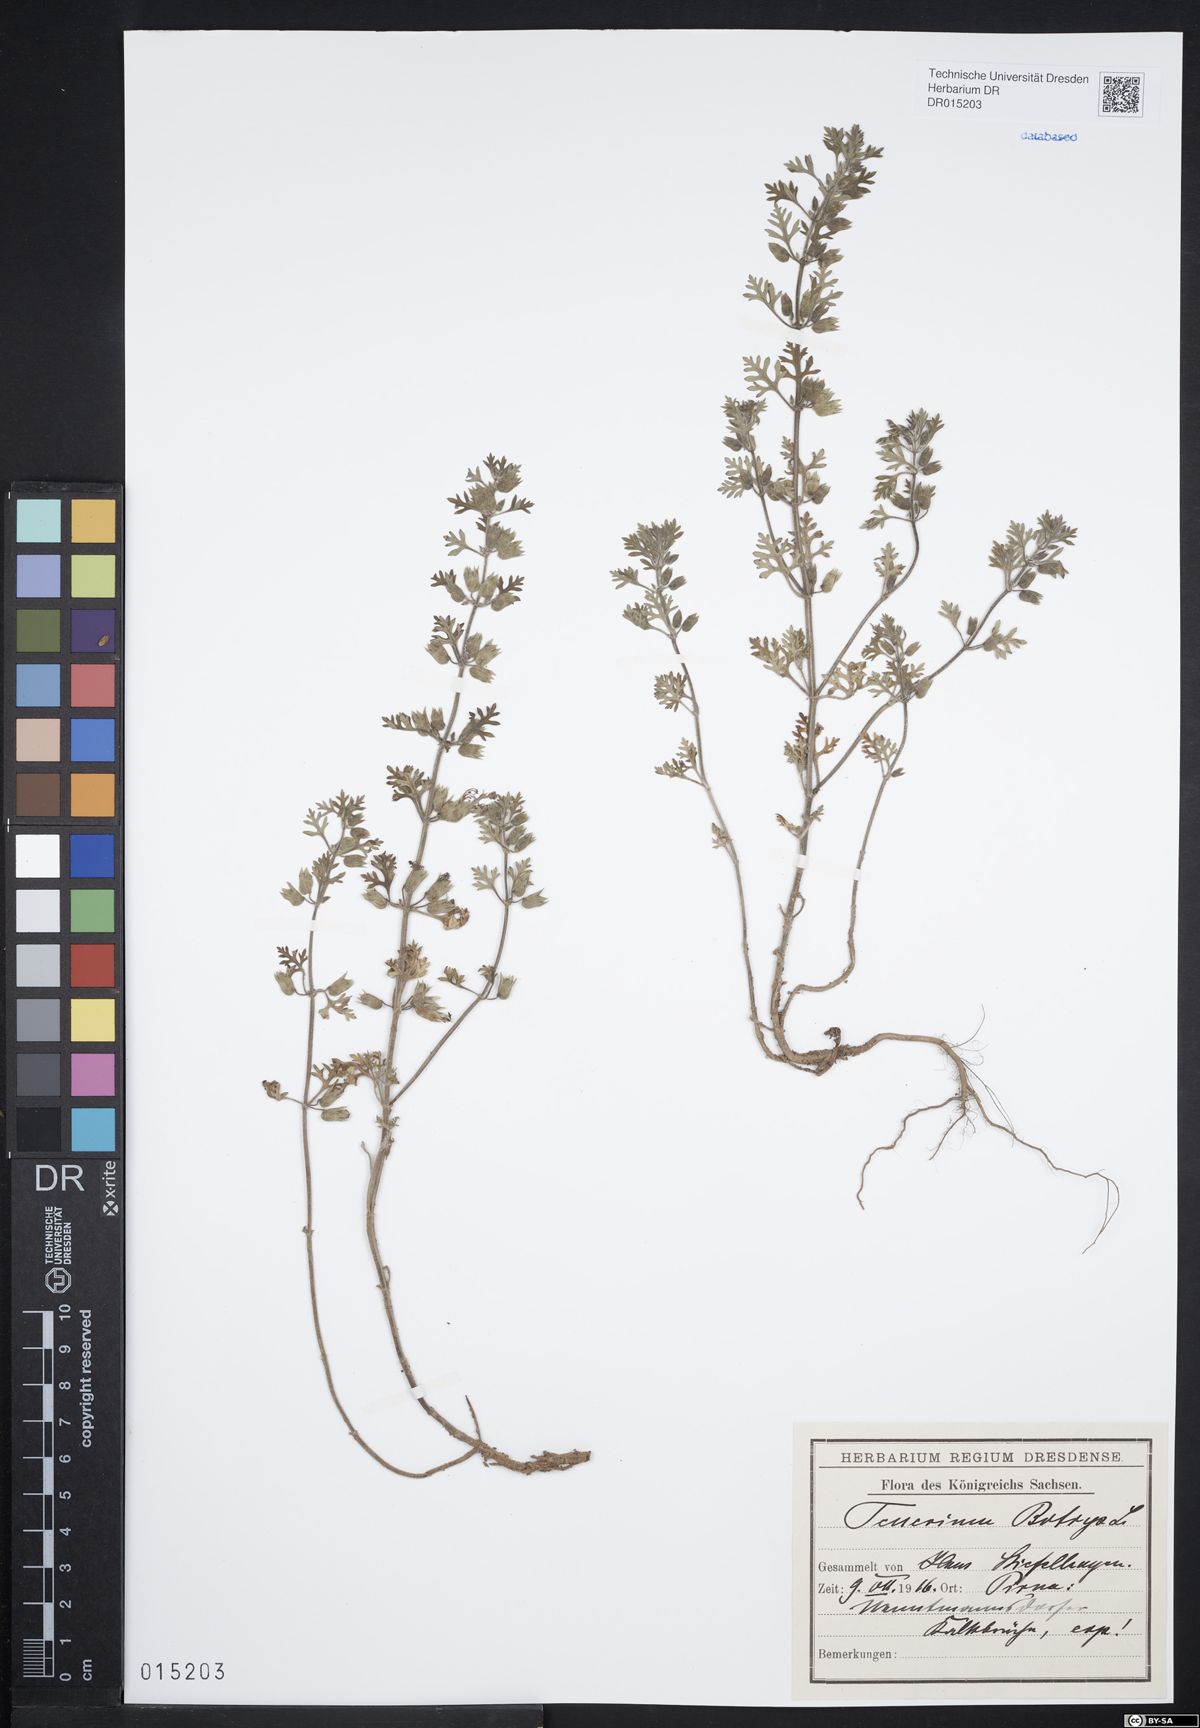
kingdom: Plantae
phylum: Tracheophyta
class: Magnoliopsida
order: Lamiales
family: Lamiaceae
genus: Teucrium
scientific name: Teucrium botrys
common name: Cut-leaved germander
